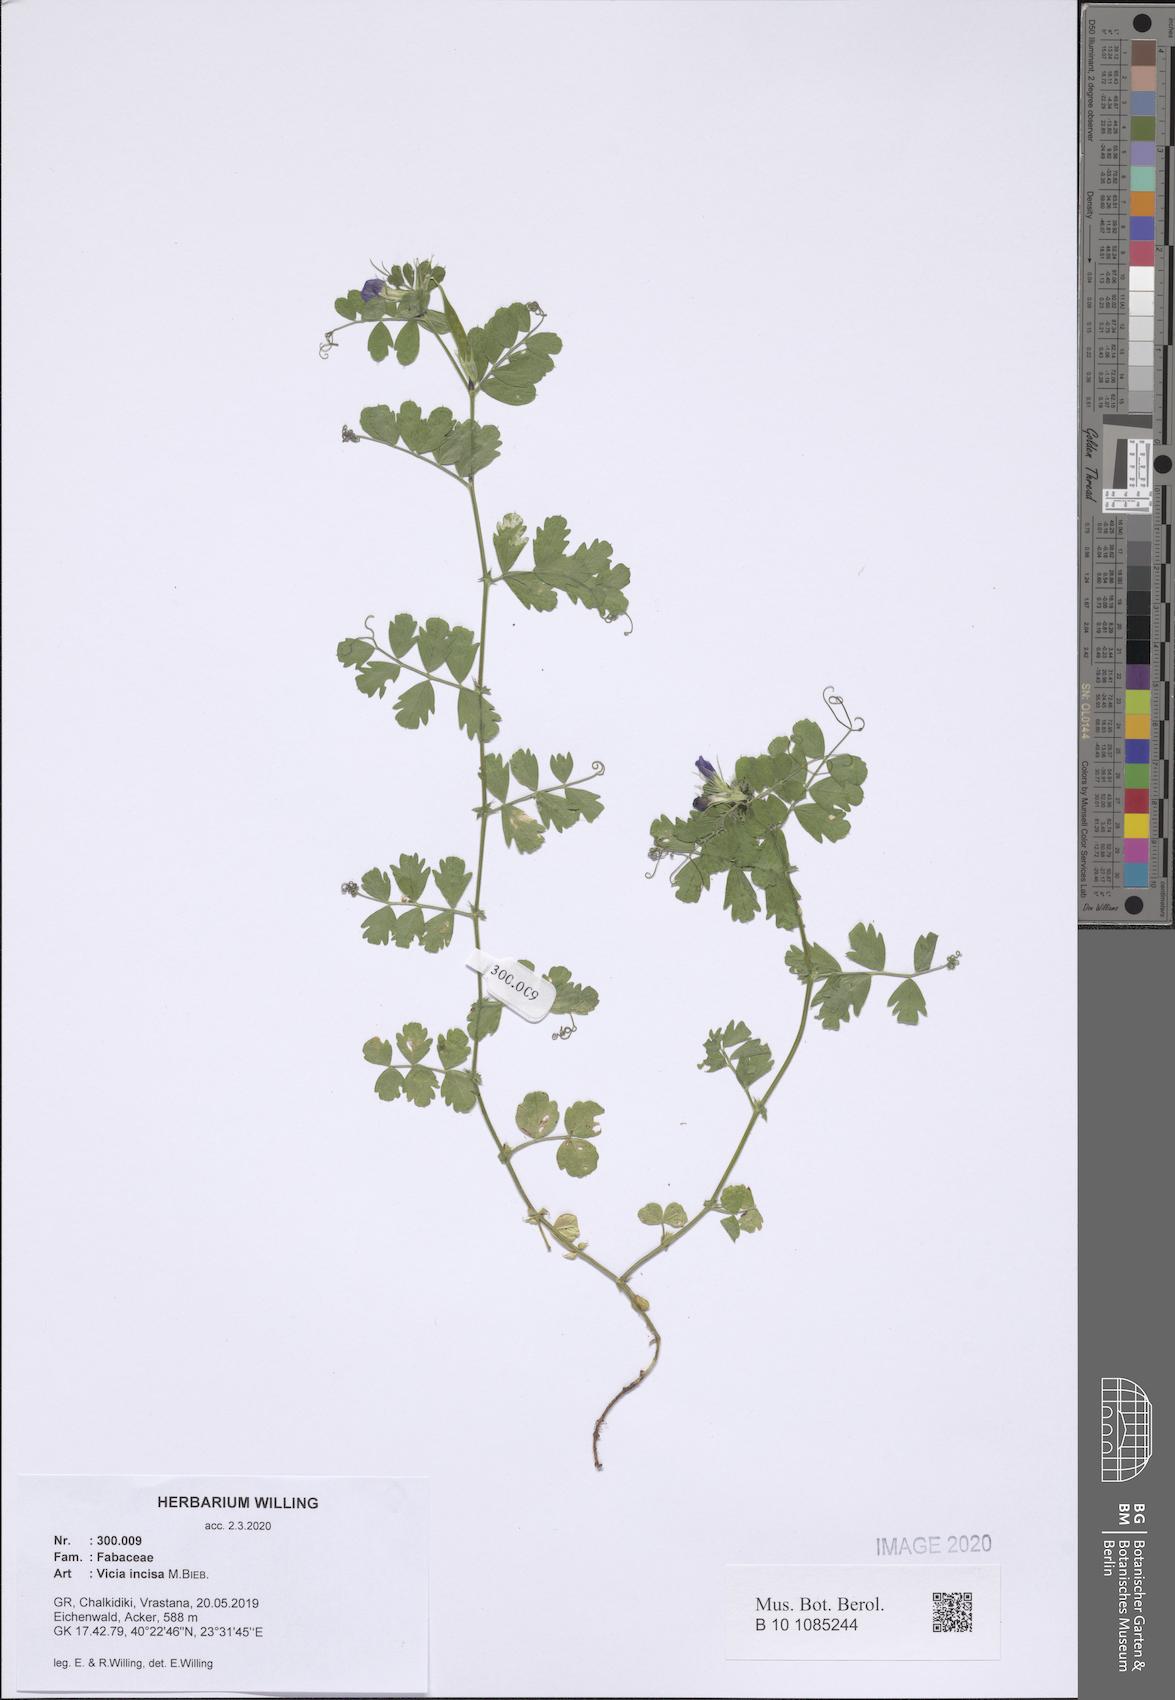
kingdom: Plantae
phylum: Tracheophyta
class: Magnoliopsida
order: Fabales
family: Fabaceae
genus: Vicia
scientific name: Vicia sativa
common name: Garden vetch
